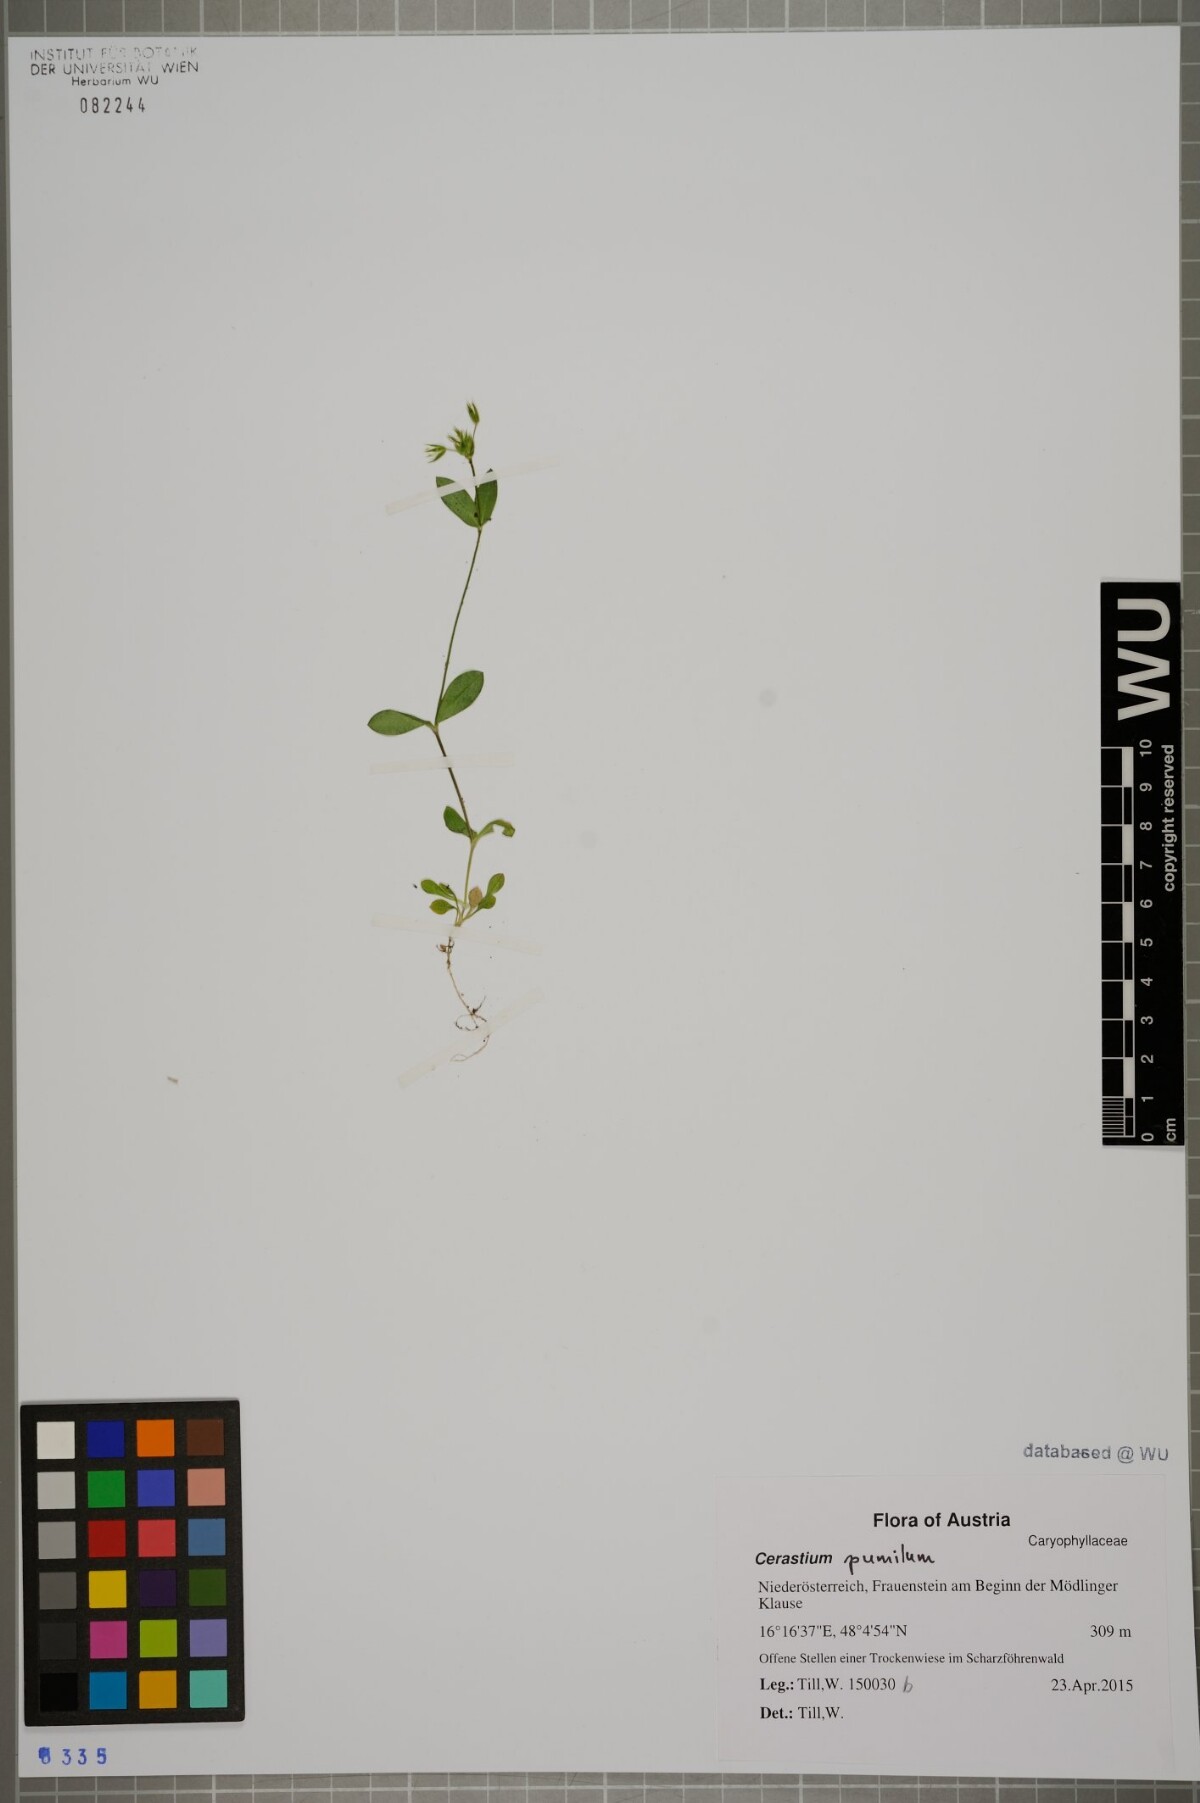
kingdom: Plantae
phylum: Tracheophyta
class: Magnoliopsida
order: Caryophyllales
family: Caryophyllaceae
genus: Cerastium
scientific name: Cerastium pumilum
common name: Dwarf mouse-ear
